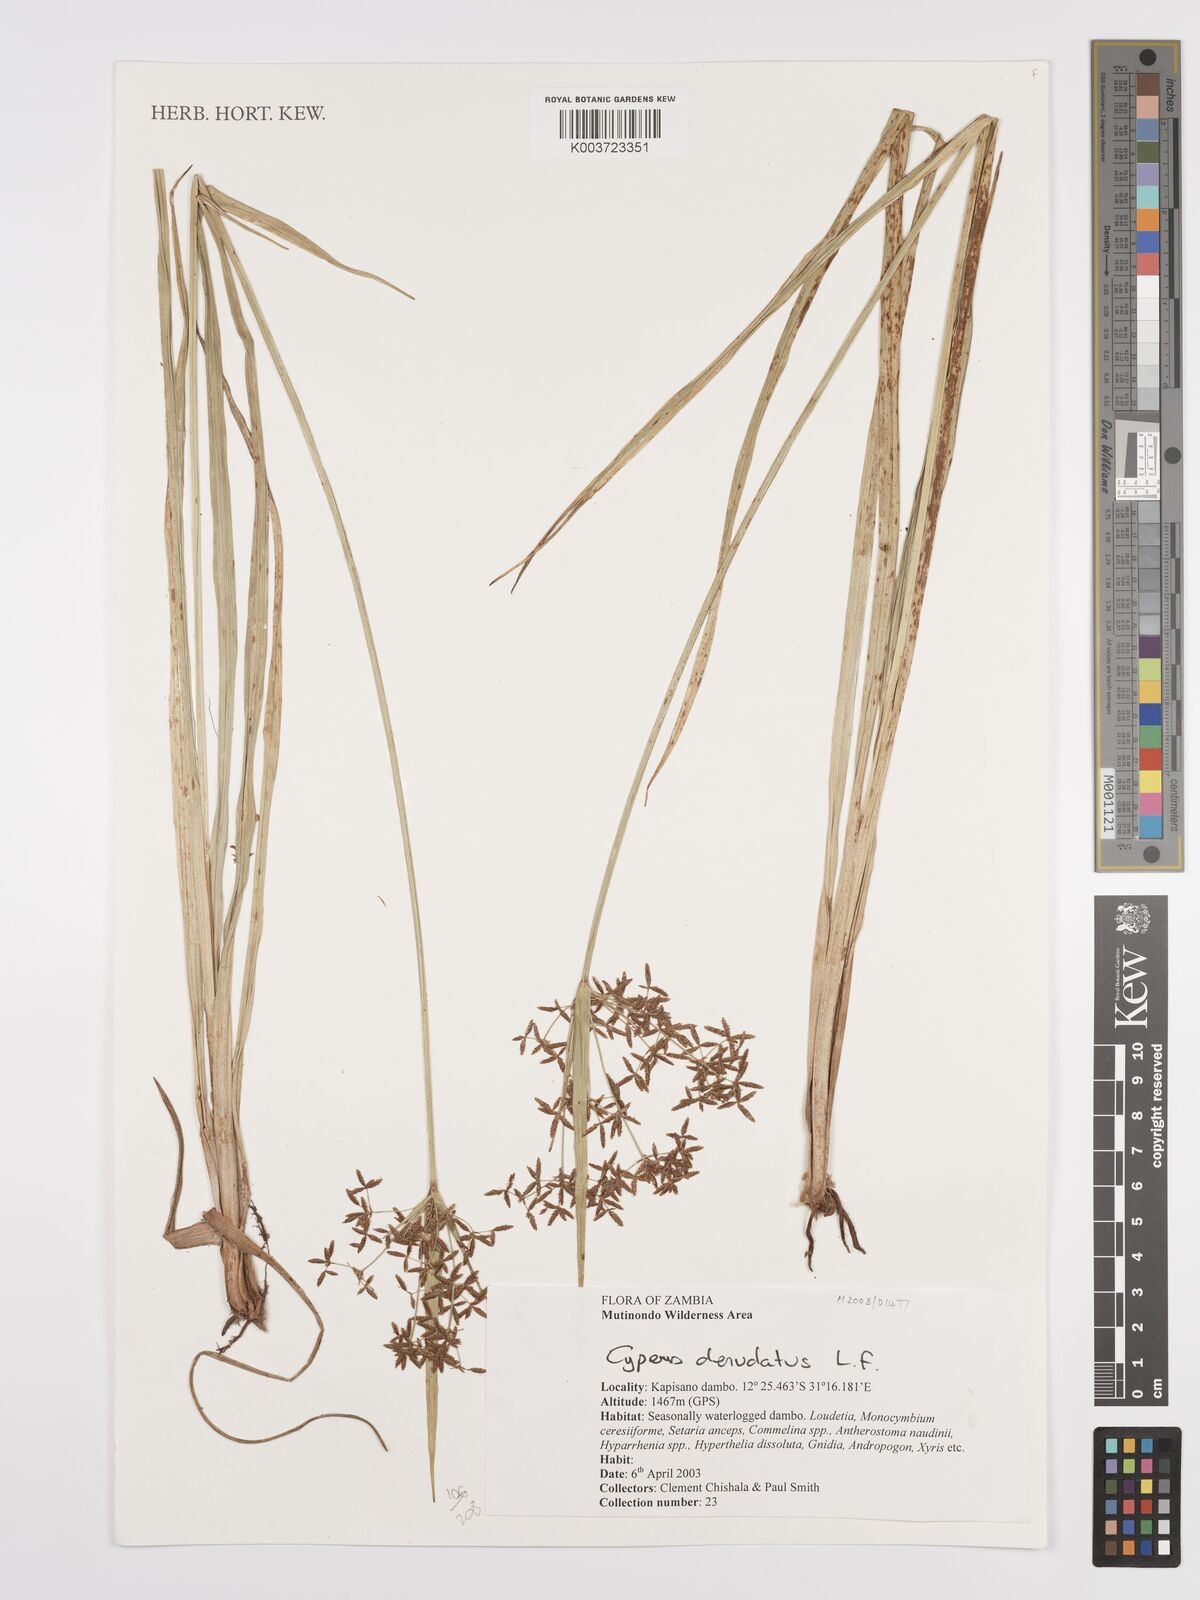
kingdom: Plantae
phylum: Tracheophyta
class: Liliopsida
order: Poales
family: Cyperaceae
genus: Cyperus
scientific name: Cyperus denudatus
